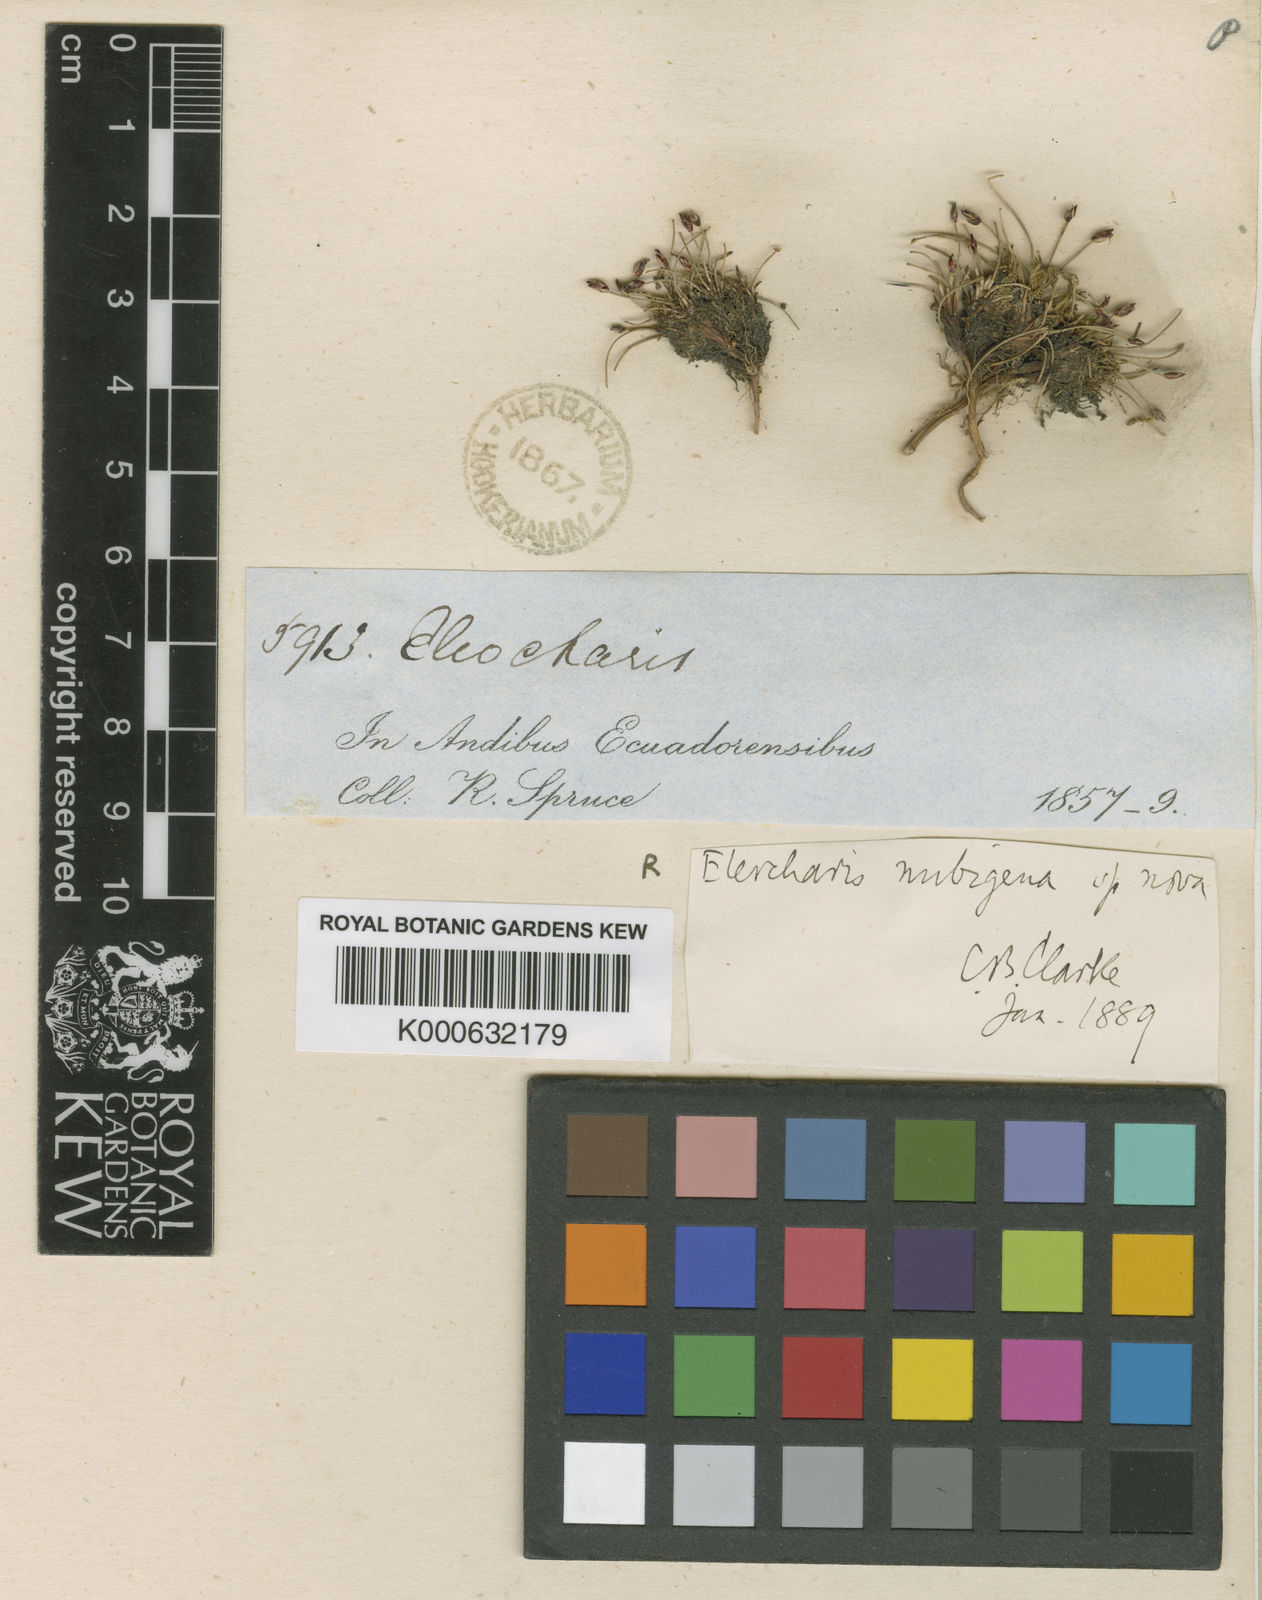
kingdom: Plantae
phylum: Tracheophyta
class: Liliopsida
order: Poales
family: Cyperaceae
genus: Eleocharis
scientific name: Eleocharis albibracteata
